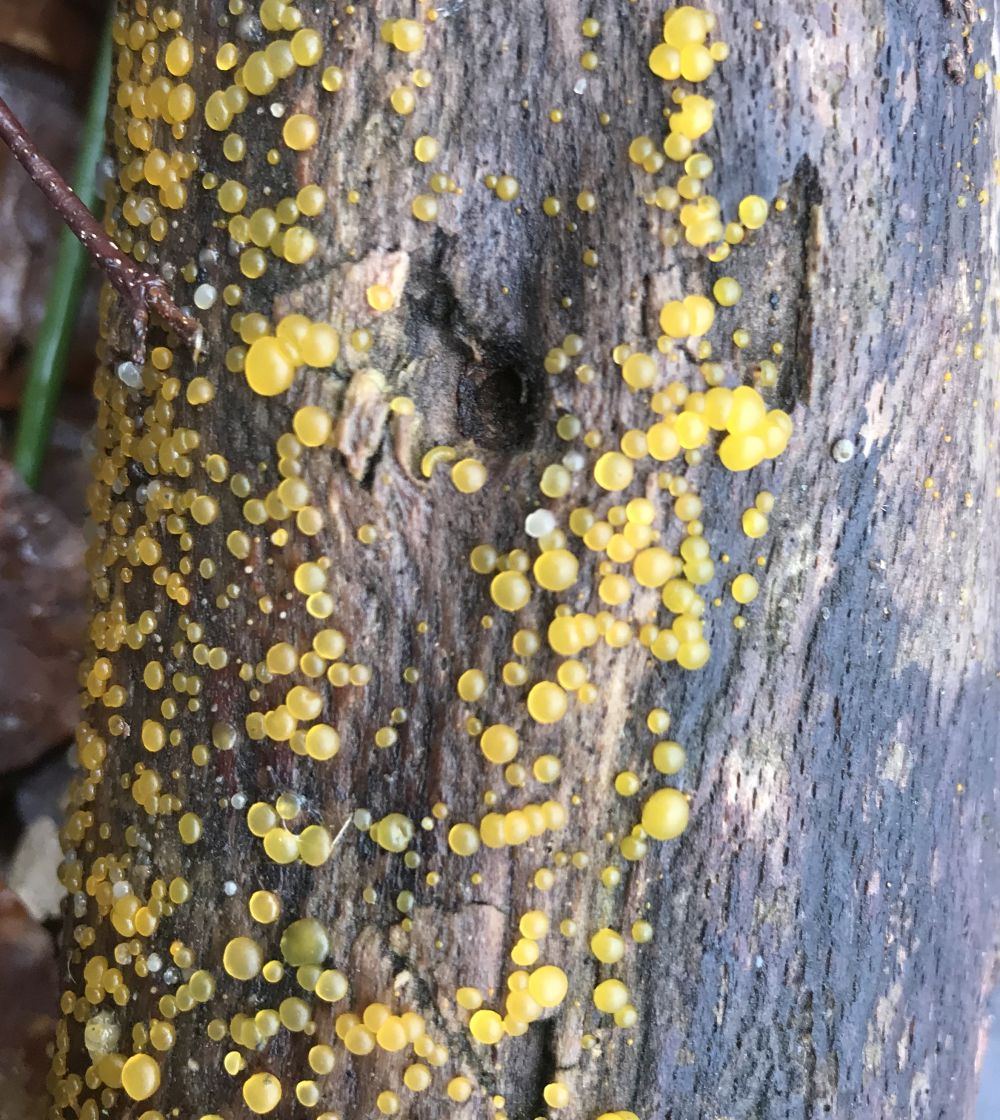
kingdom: Fungi
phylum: Basidiomycota
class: Dacrymycetes
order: Dacrymycetales
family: Dacrymycetaceae
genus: Dacrymyces
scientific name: Dacrymyces
